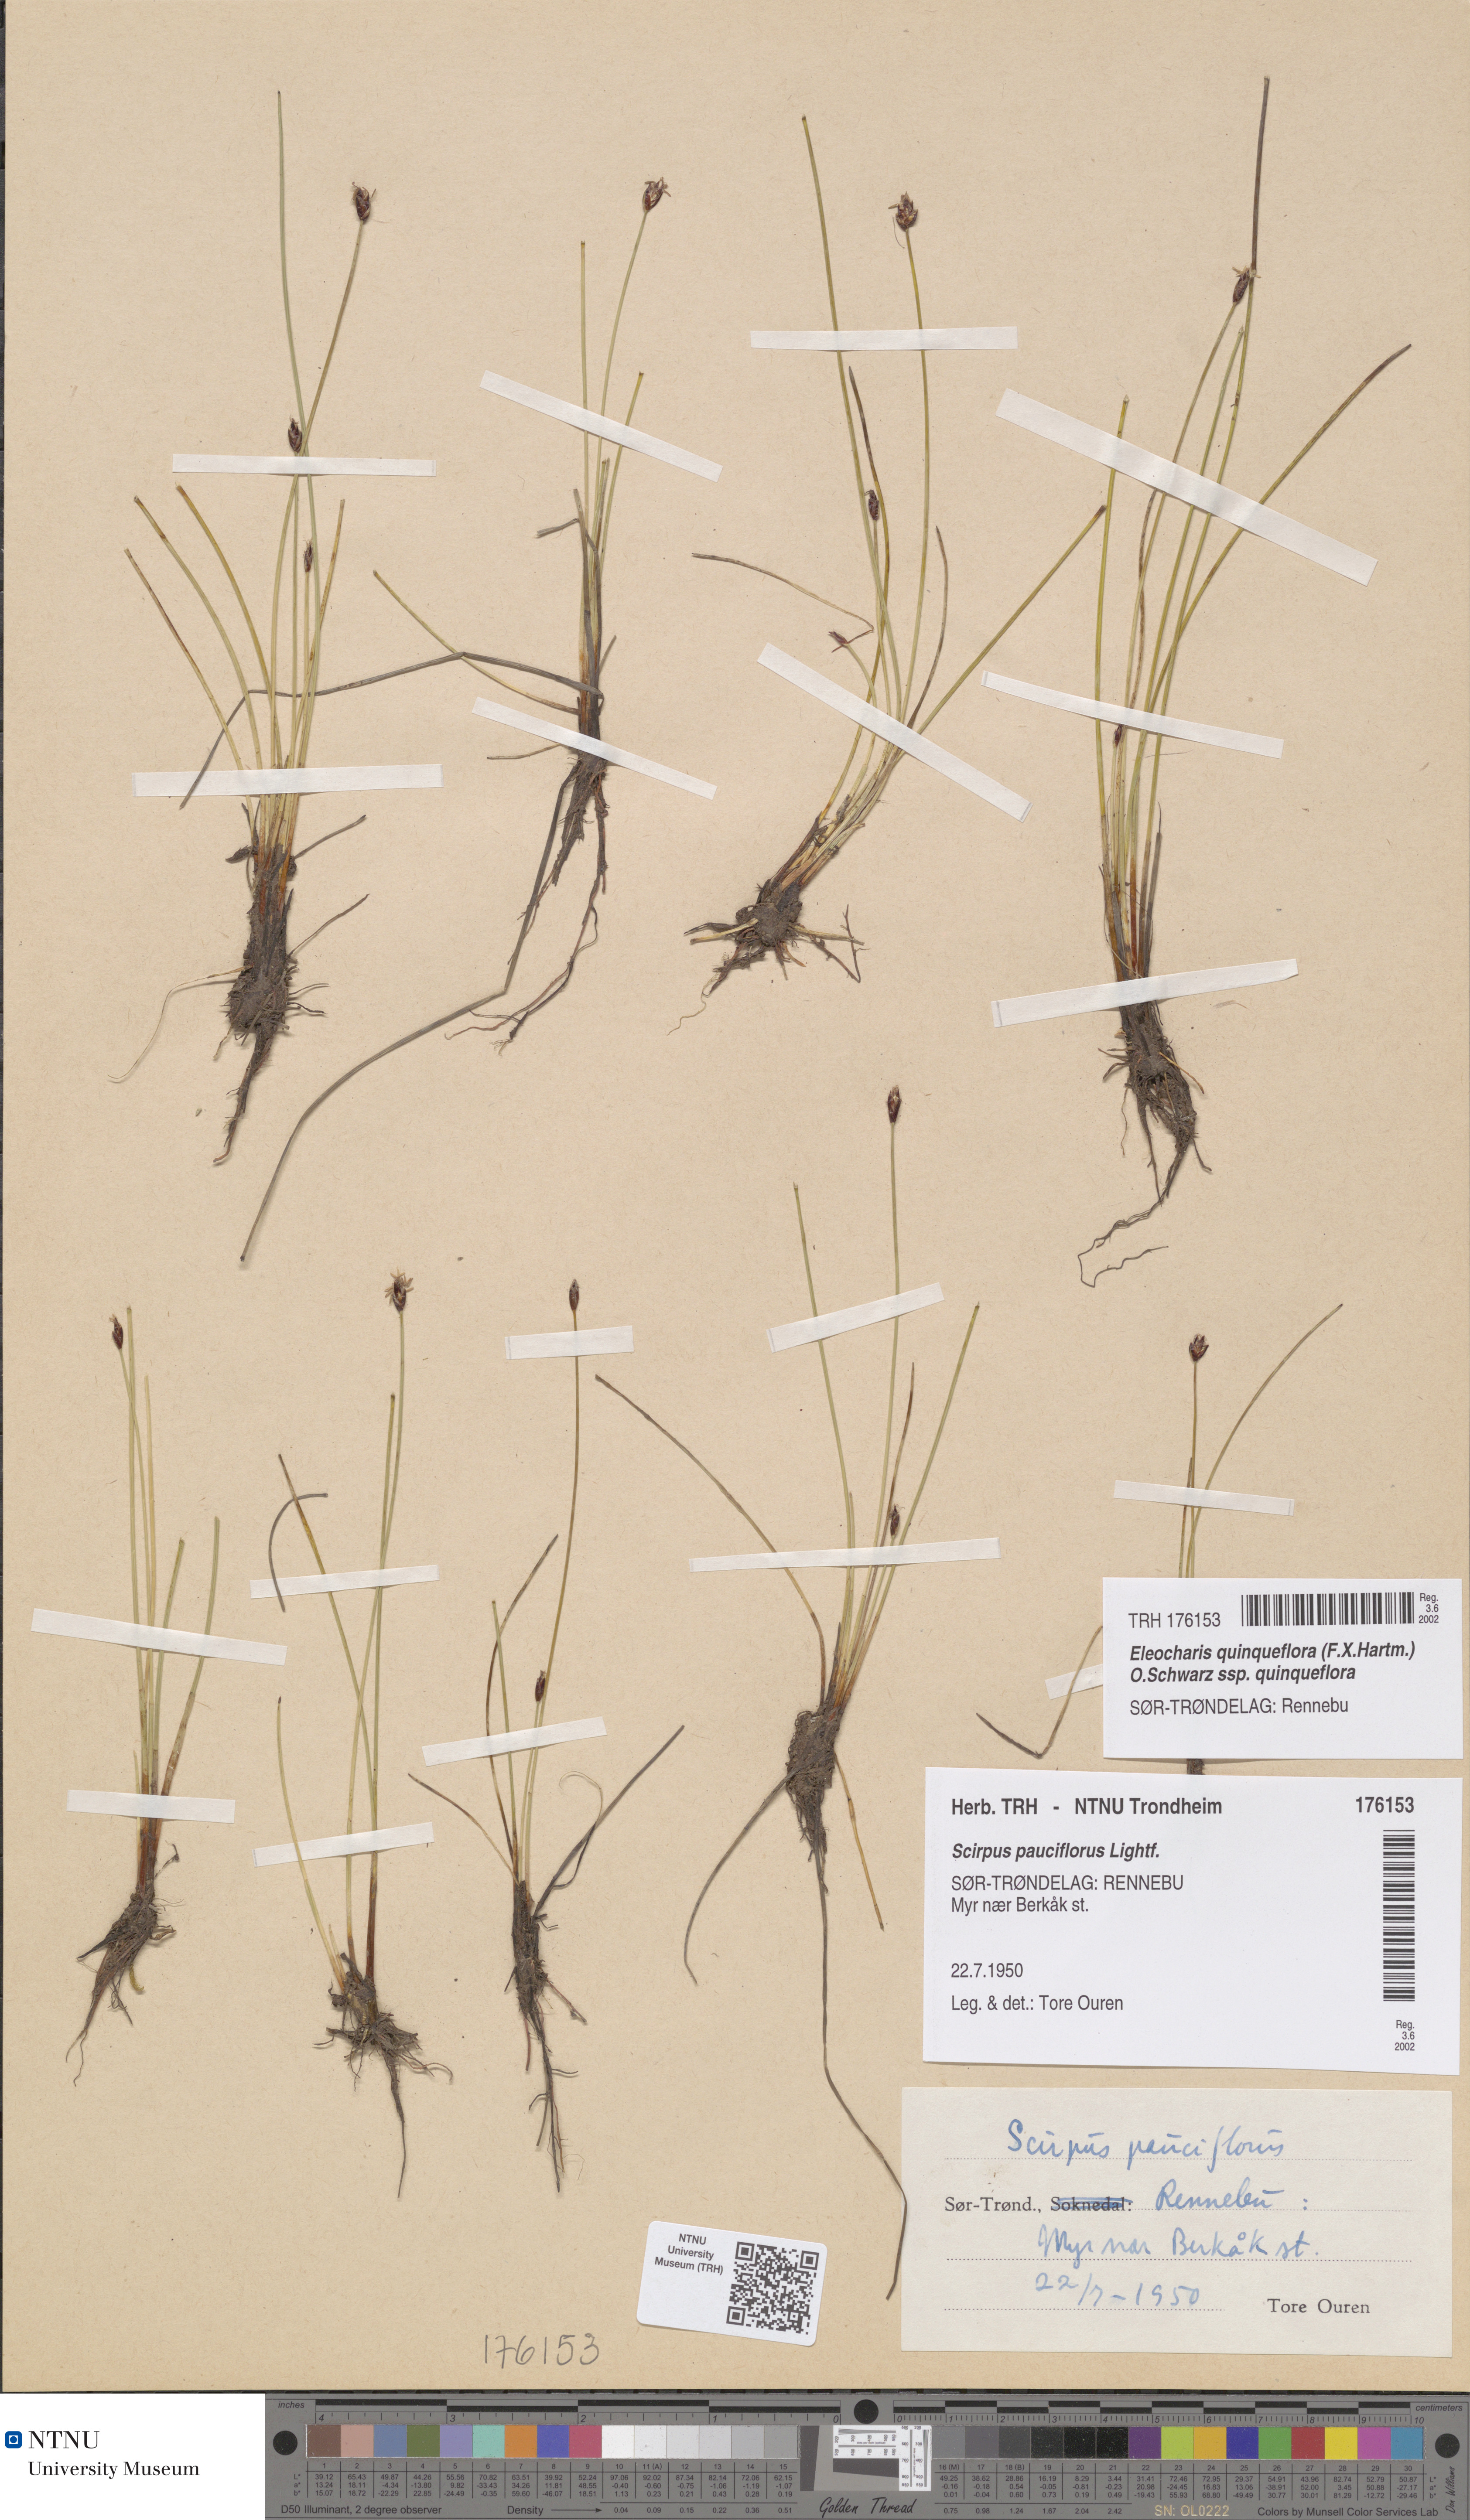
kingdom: Plantae
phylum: Tracheophyta
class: Liliopsida
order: Poales
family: Cyperaceae
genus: Eleocharis
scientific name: Eleocharis quinqueflora
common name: Few-flowered spike-rush
